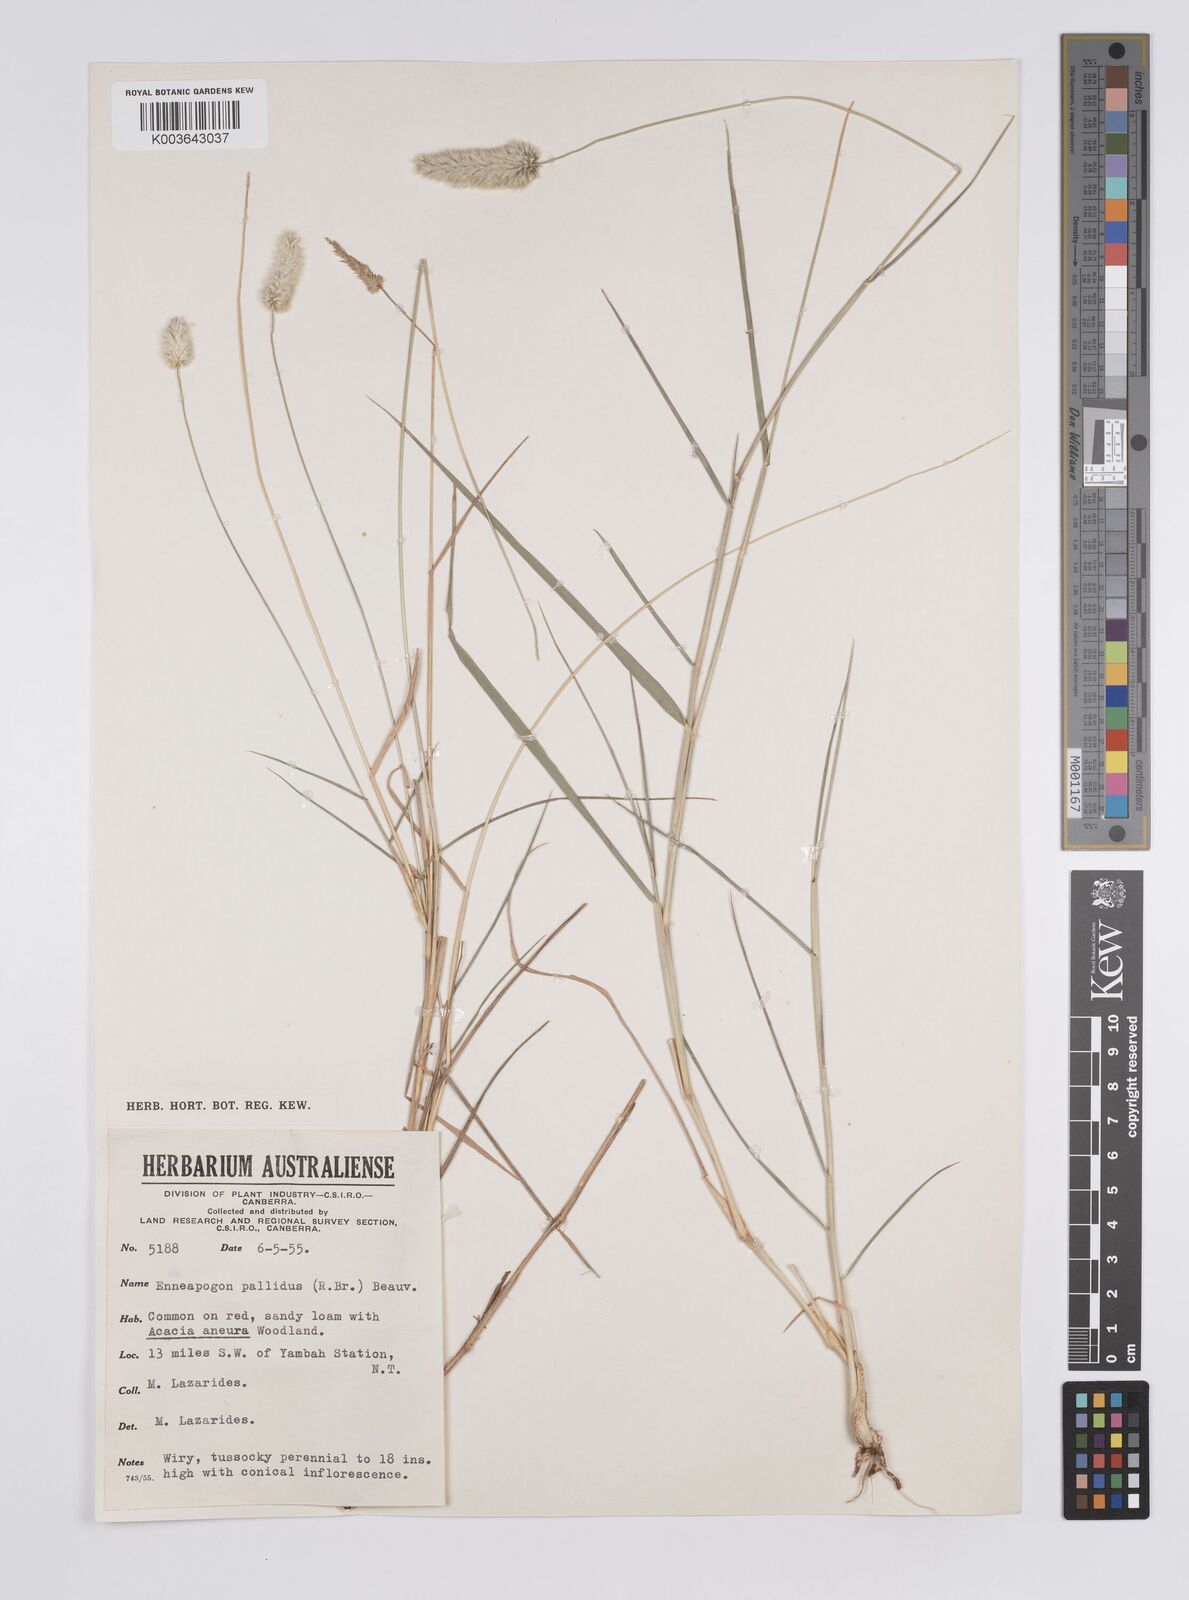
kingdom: Plantae
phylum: Tracheophyta
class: Liliopsida
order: Poales
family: Poaceae
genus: Enneapogon
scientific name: Enneapogon pallidus
